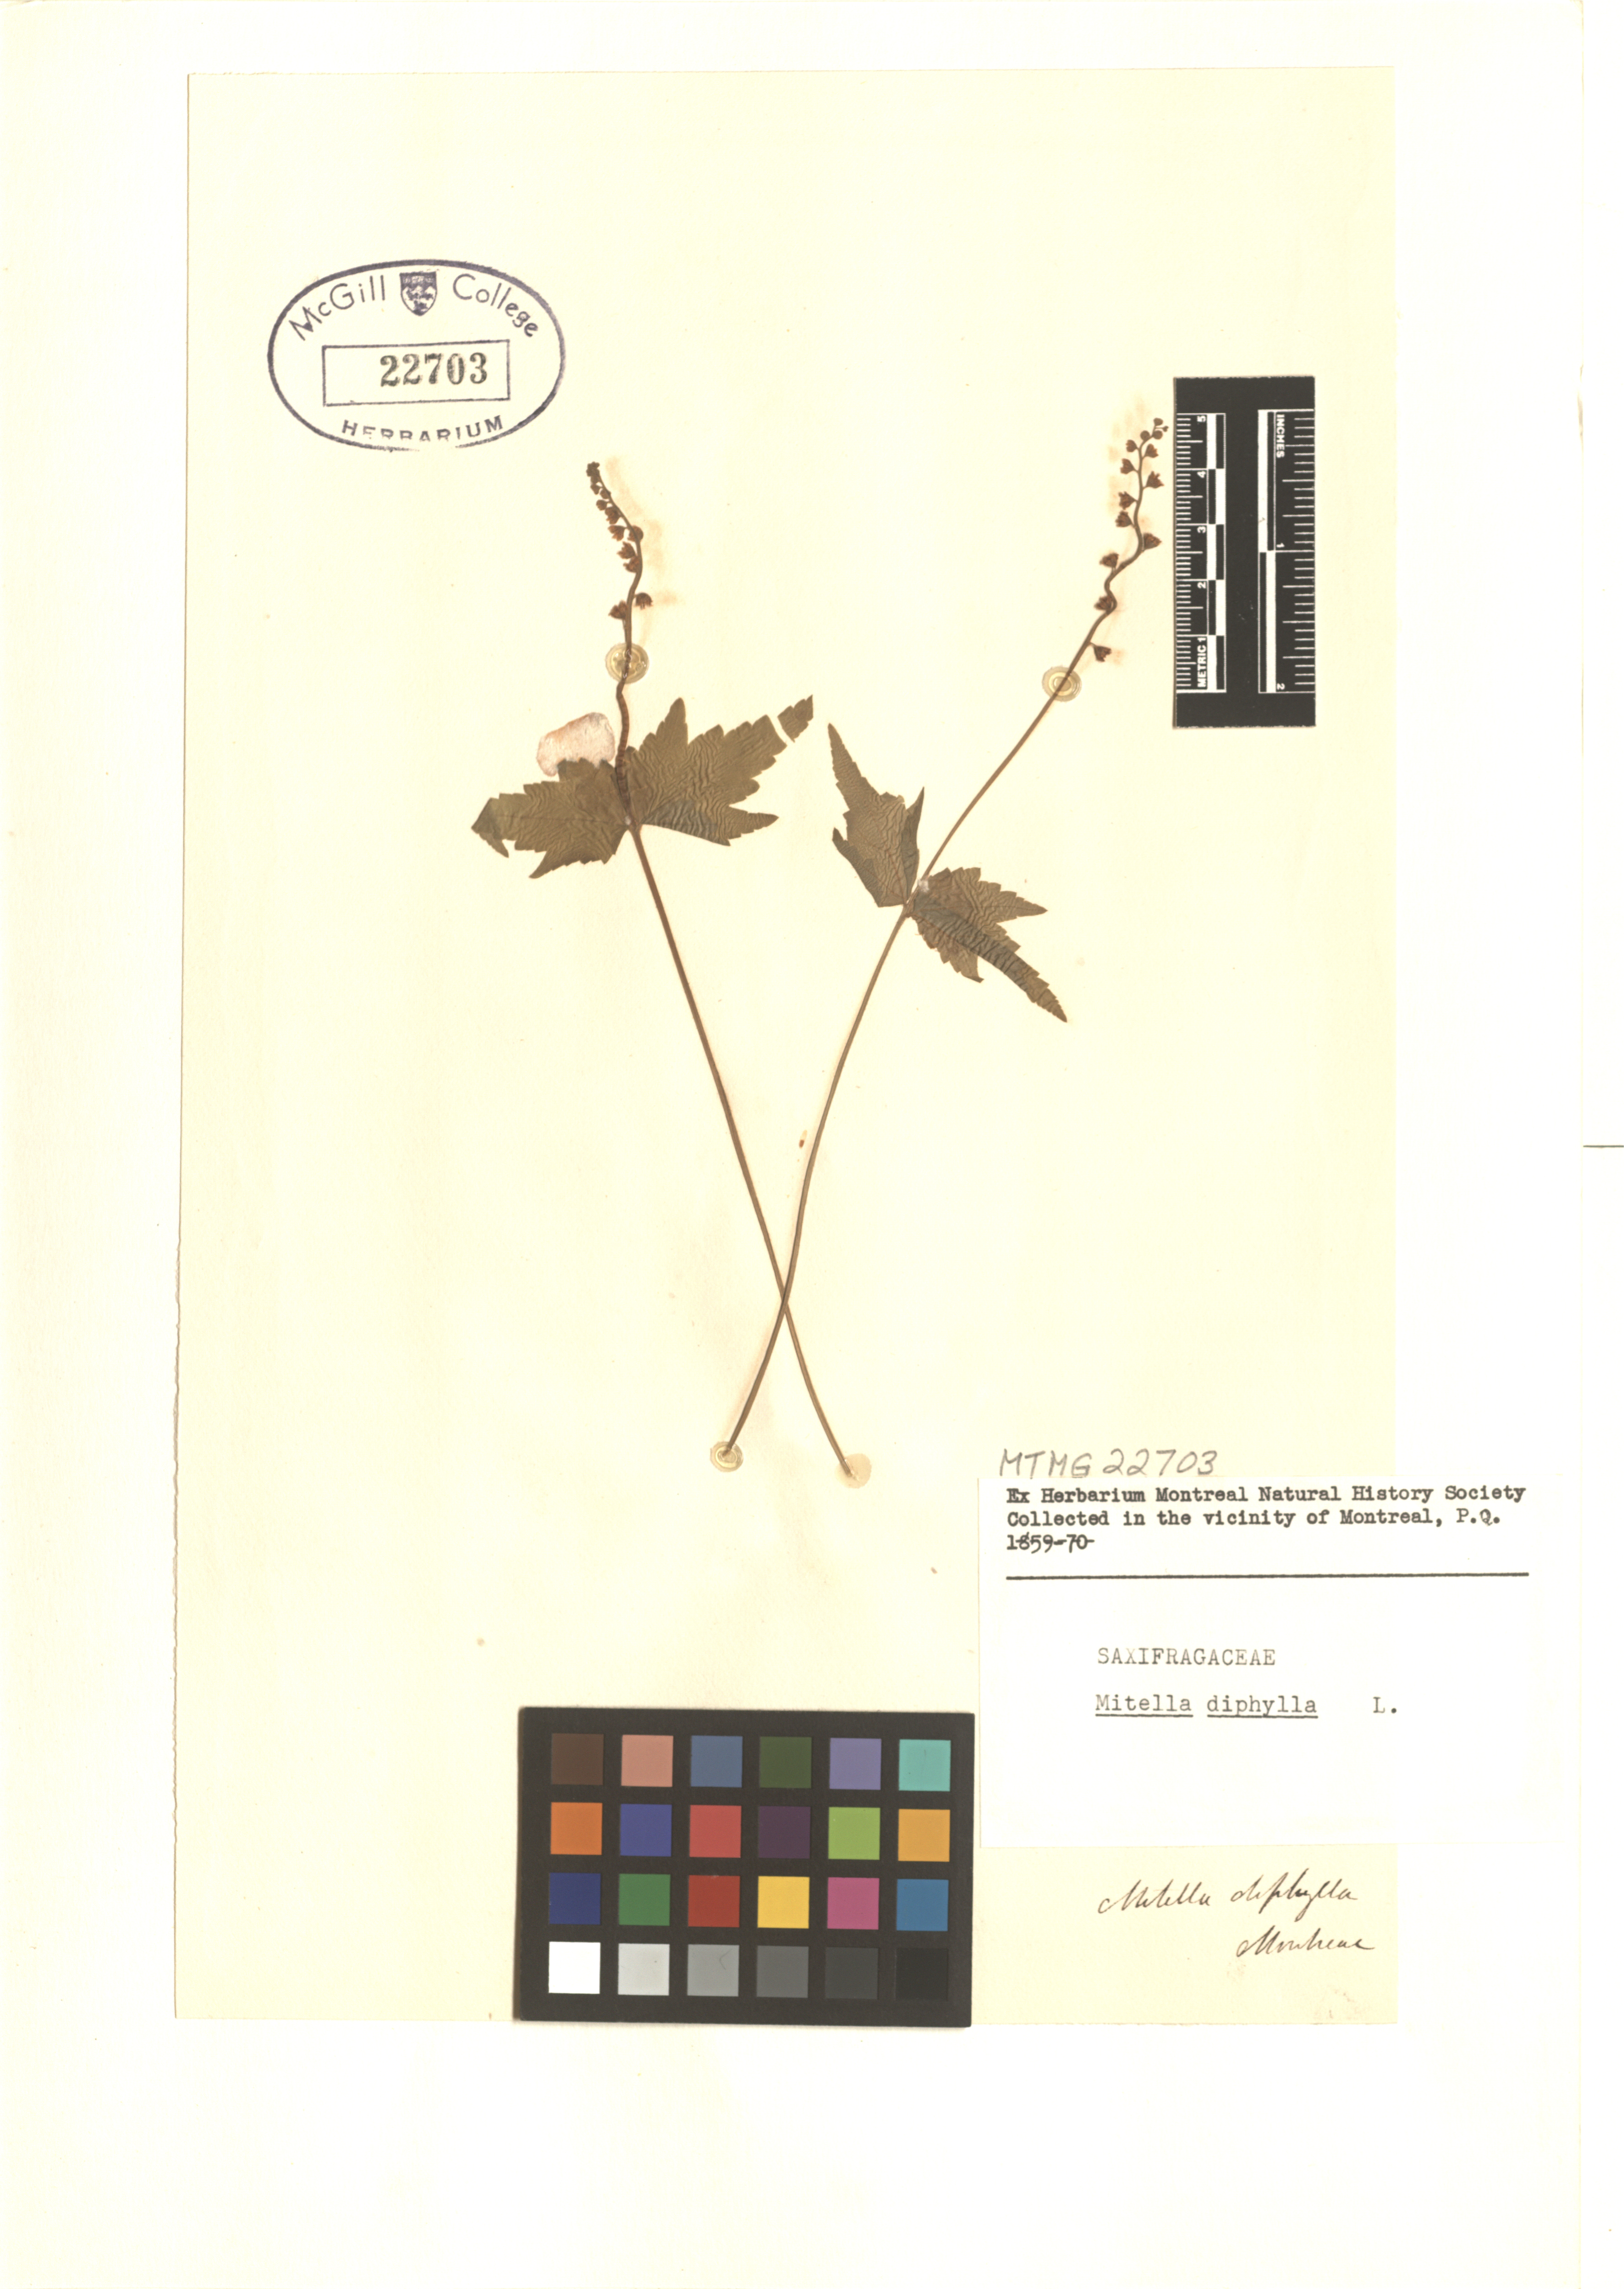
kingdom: Plantae
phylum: Tracheophyta
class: Magnoliopsida
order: Saxifragales
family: Saxifragaceae
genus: Mitella
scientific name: Mitella diphylla
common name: Coolwort
